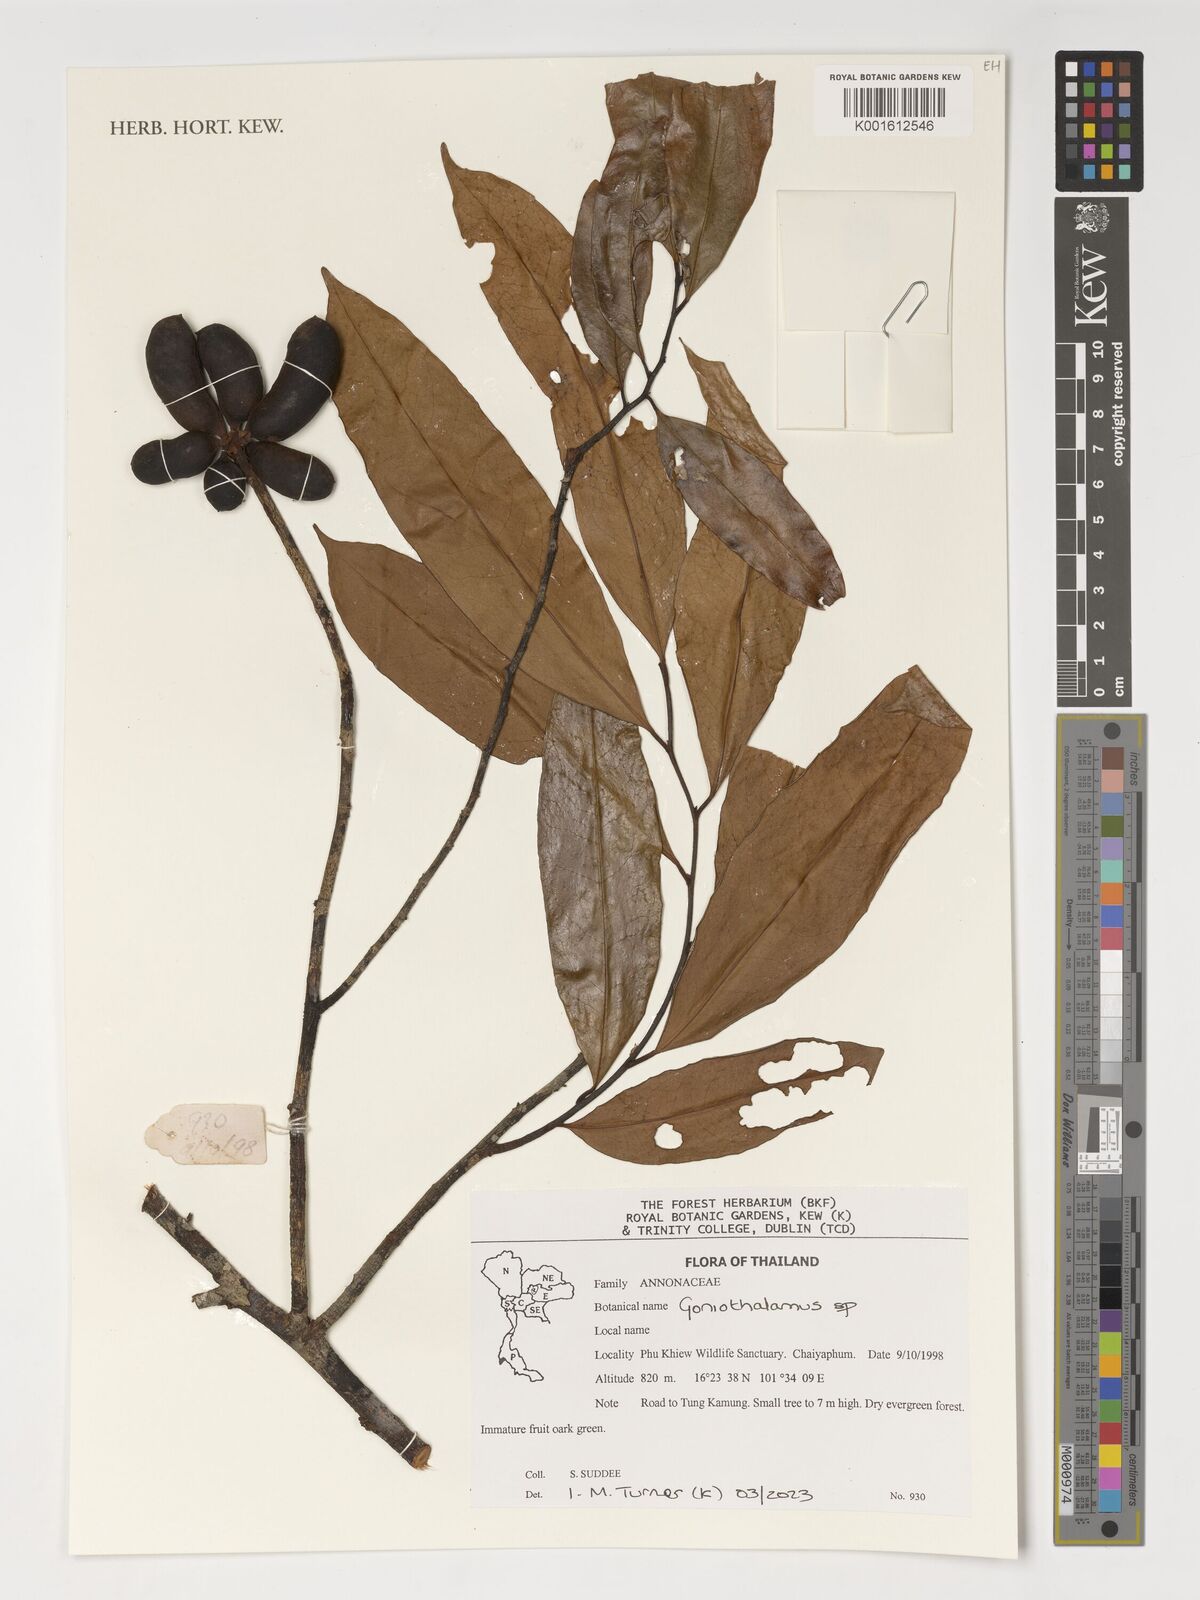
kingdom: Plantae
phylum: Tracheophyta
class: Magnoliopsida
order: Magnoliales
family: Annonaceae
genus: Goniothalamus
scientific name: Goniothalamus
